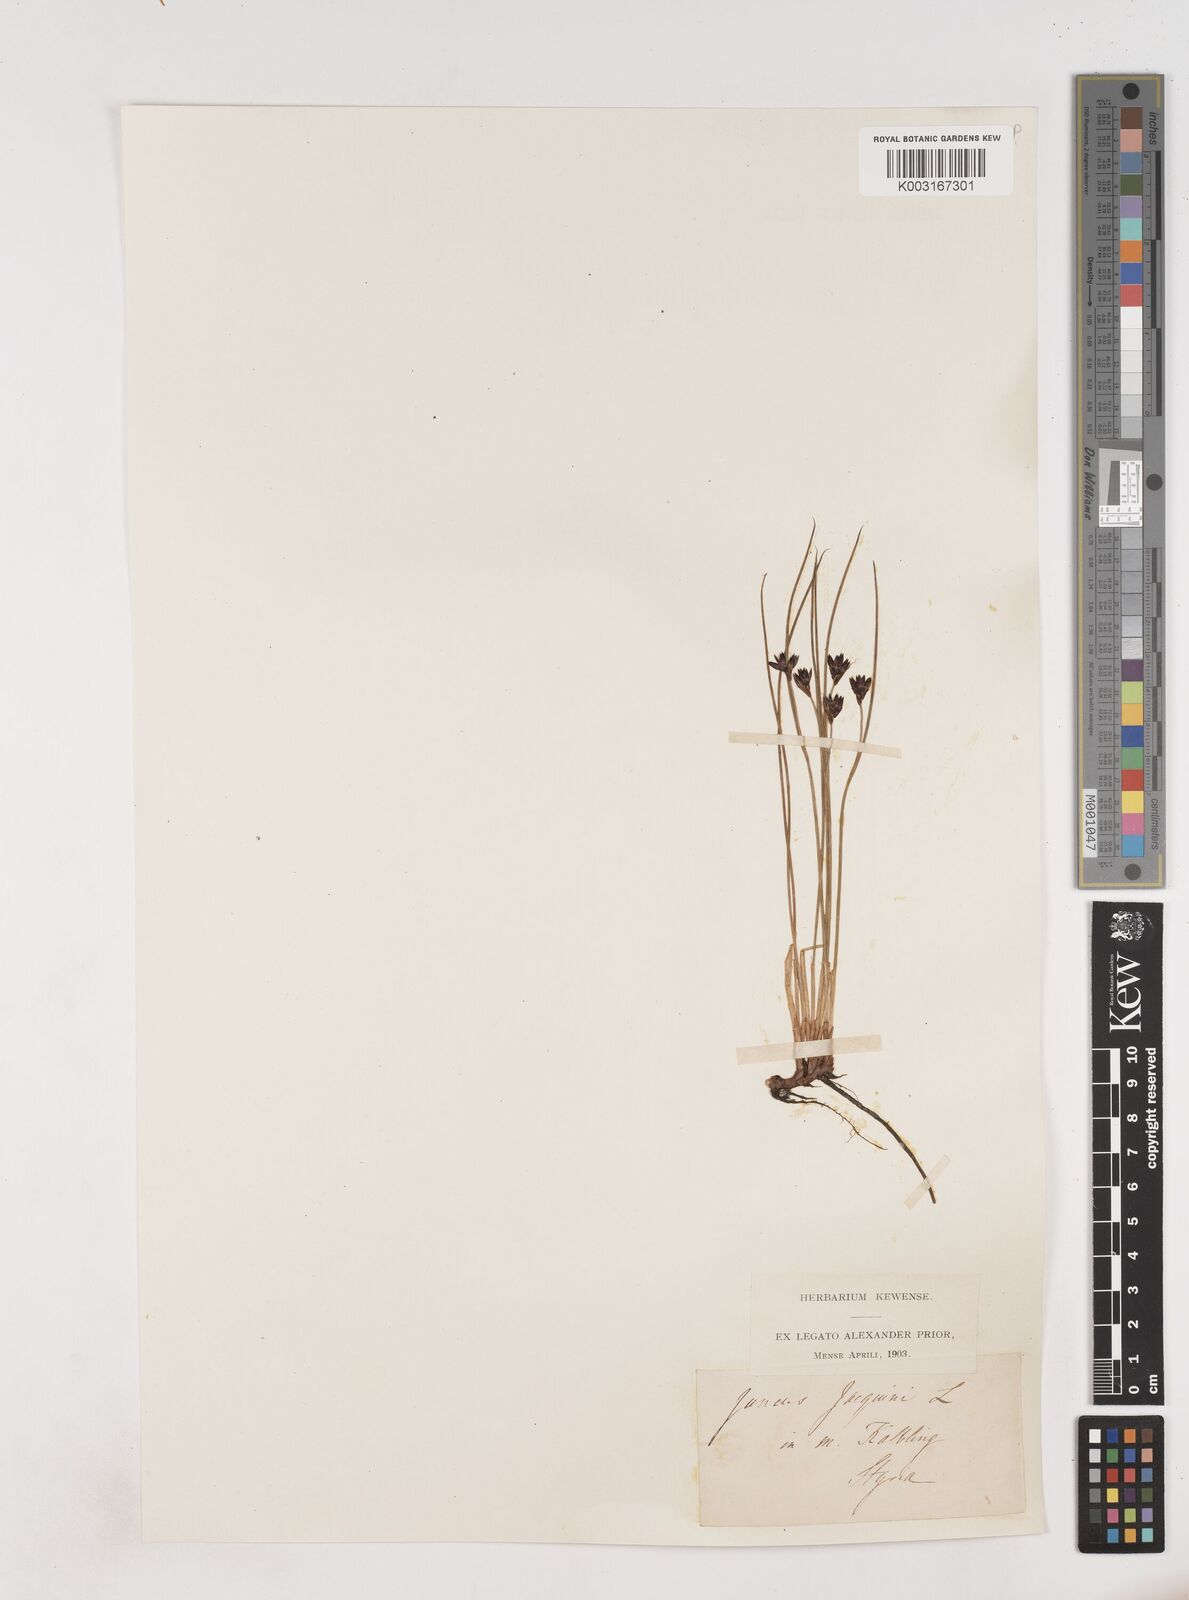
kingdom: Plantae
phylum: Tracheophyta
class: Liliopsida
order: Poales
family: Juncaceae
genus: Juncus
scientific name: Juncus jacquinii
